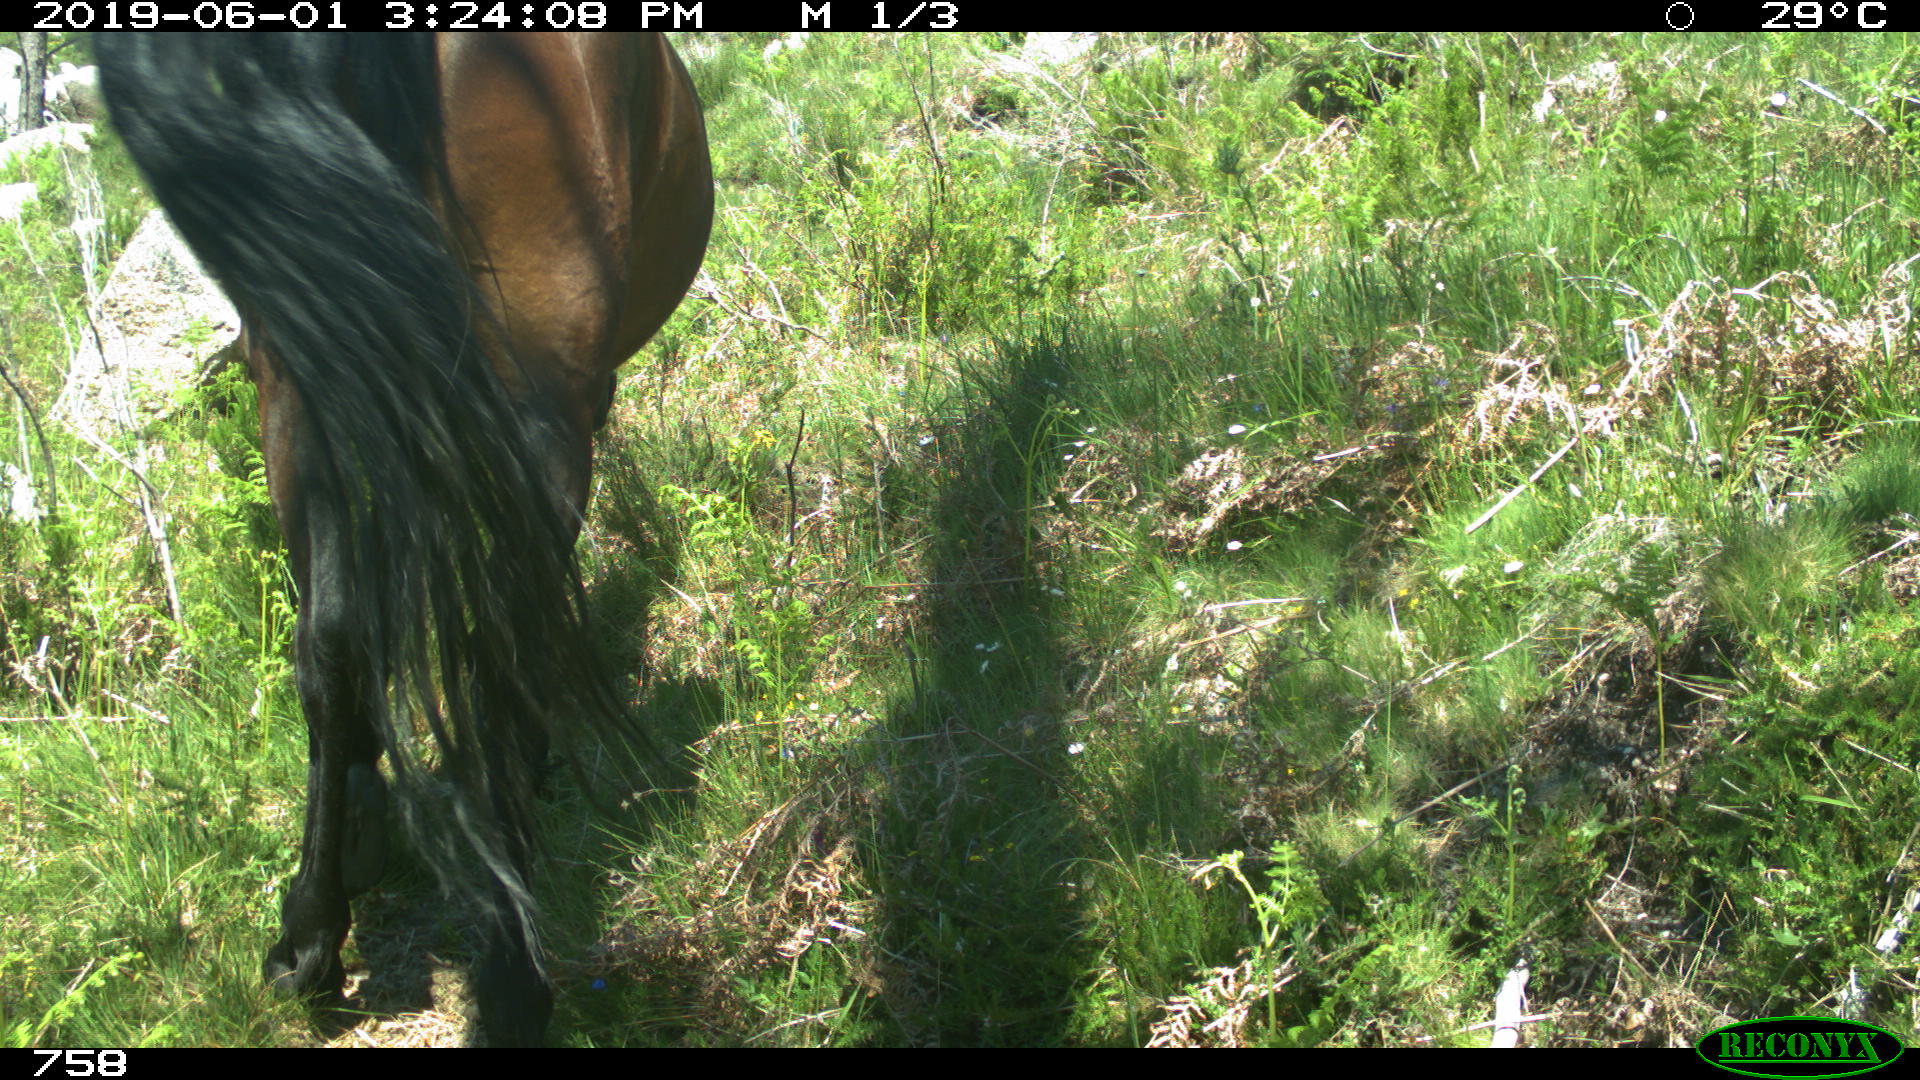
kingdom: Animalia
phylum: Chordata
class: Mammalia
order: Perissodactyla
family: Equidae
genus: Equus
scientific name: Equus caballus
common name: Horse
